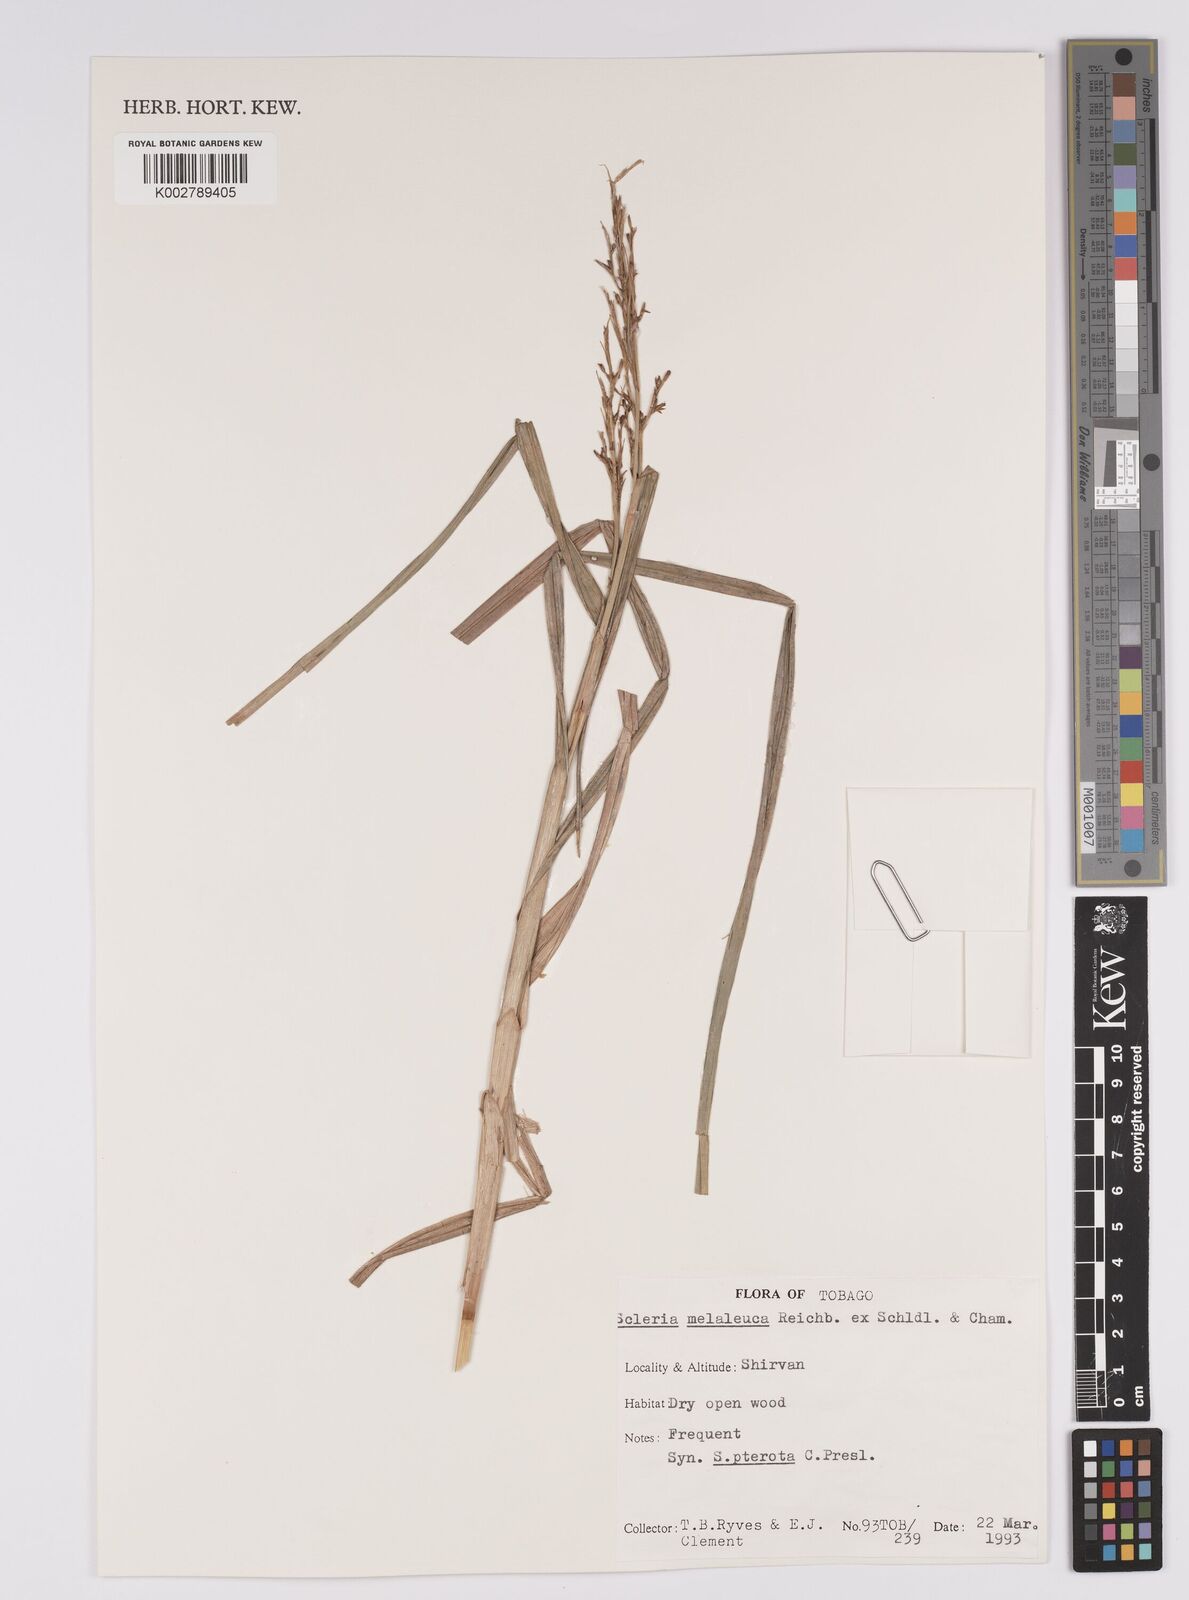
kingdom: Plantae
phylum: Tracheophyta
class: Liliopsida
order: Poales
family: Cyperaceae
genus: Scleria
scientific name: Scleria gaertneri
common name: Cortadera blanca
